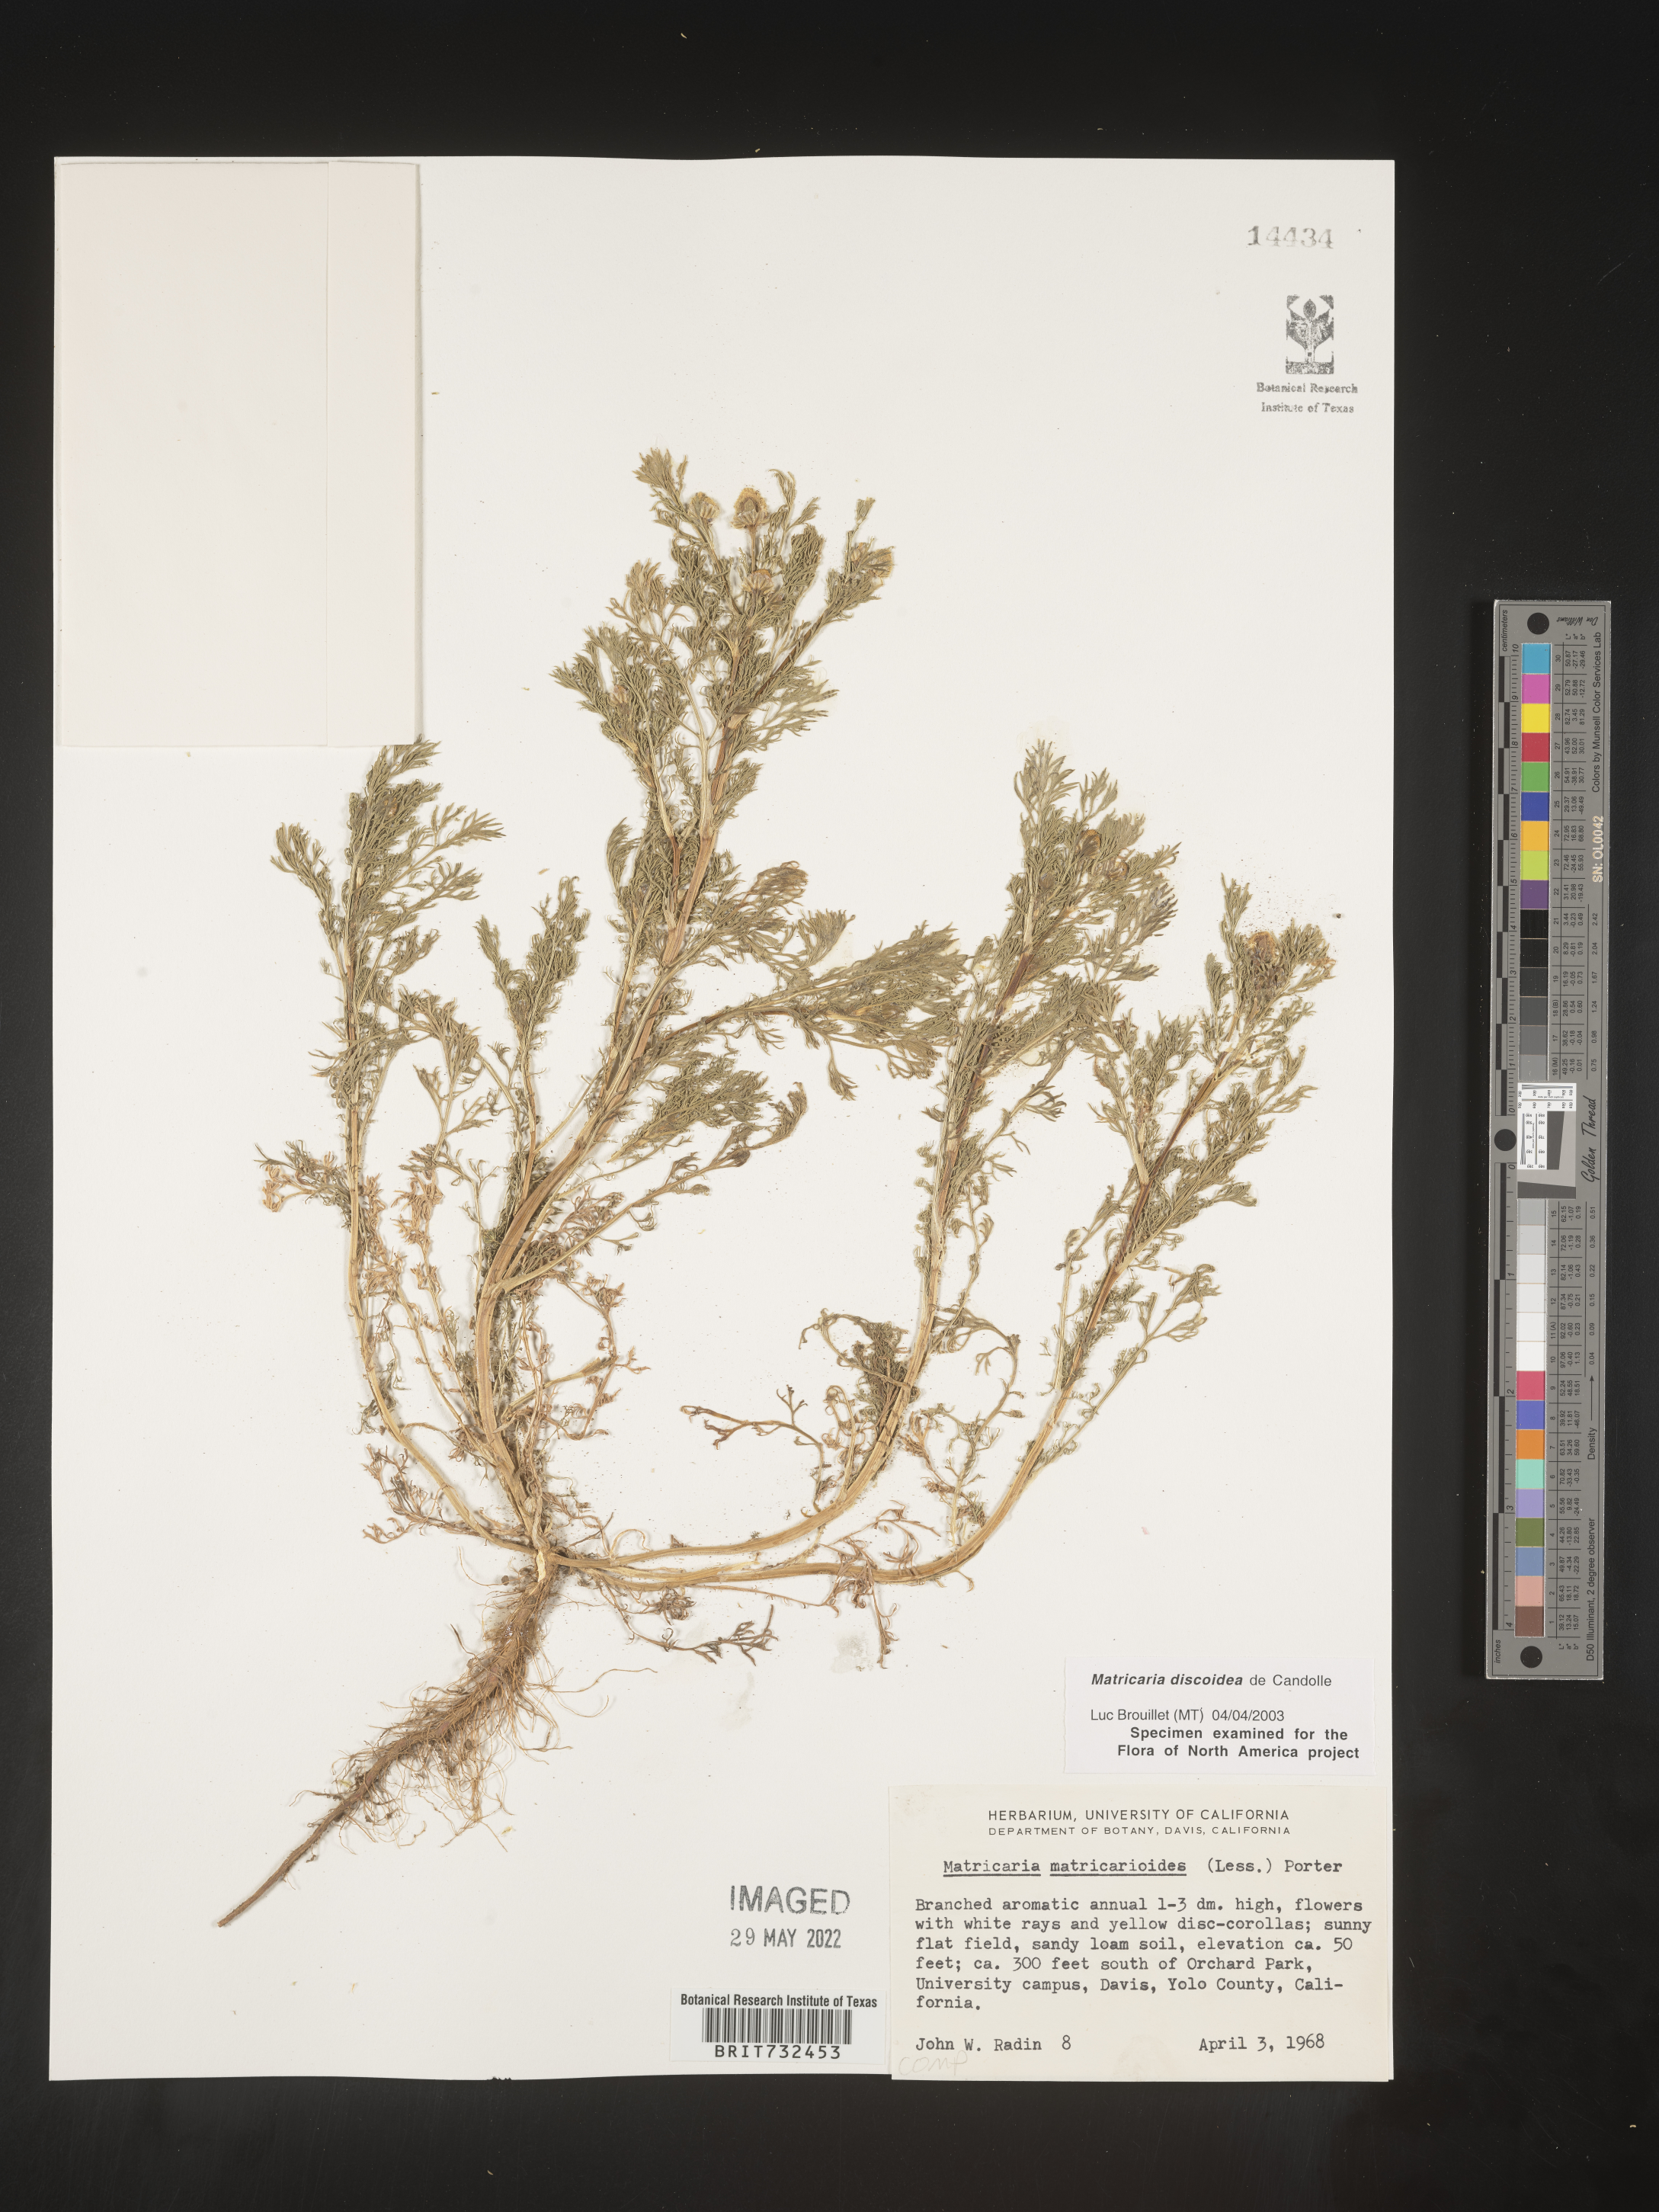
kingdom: Plantae
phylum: Tracheophyta
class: Magnoliopsida
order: Asterales
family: Asteraceae
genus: Matricaria
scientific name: Matricaria discoidea
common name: Disc mayweed
